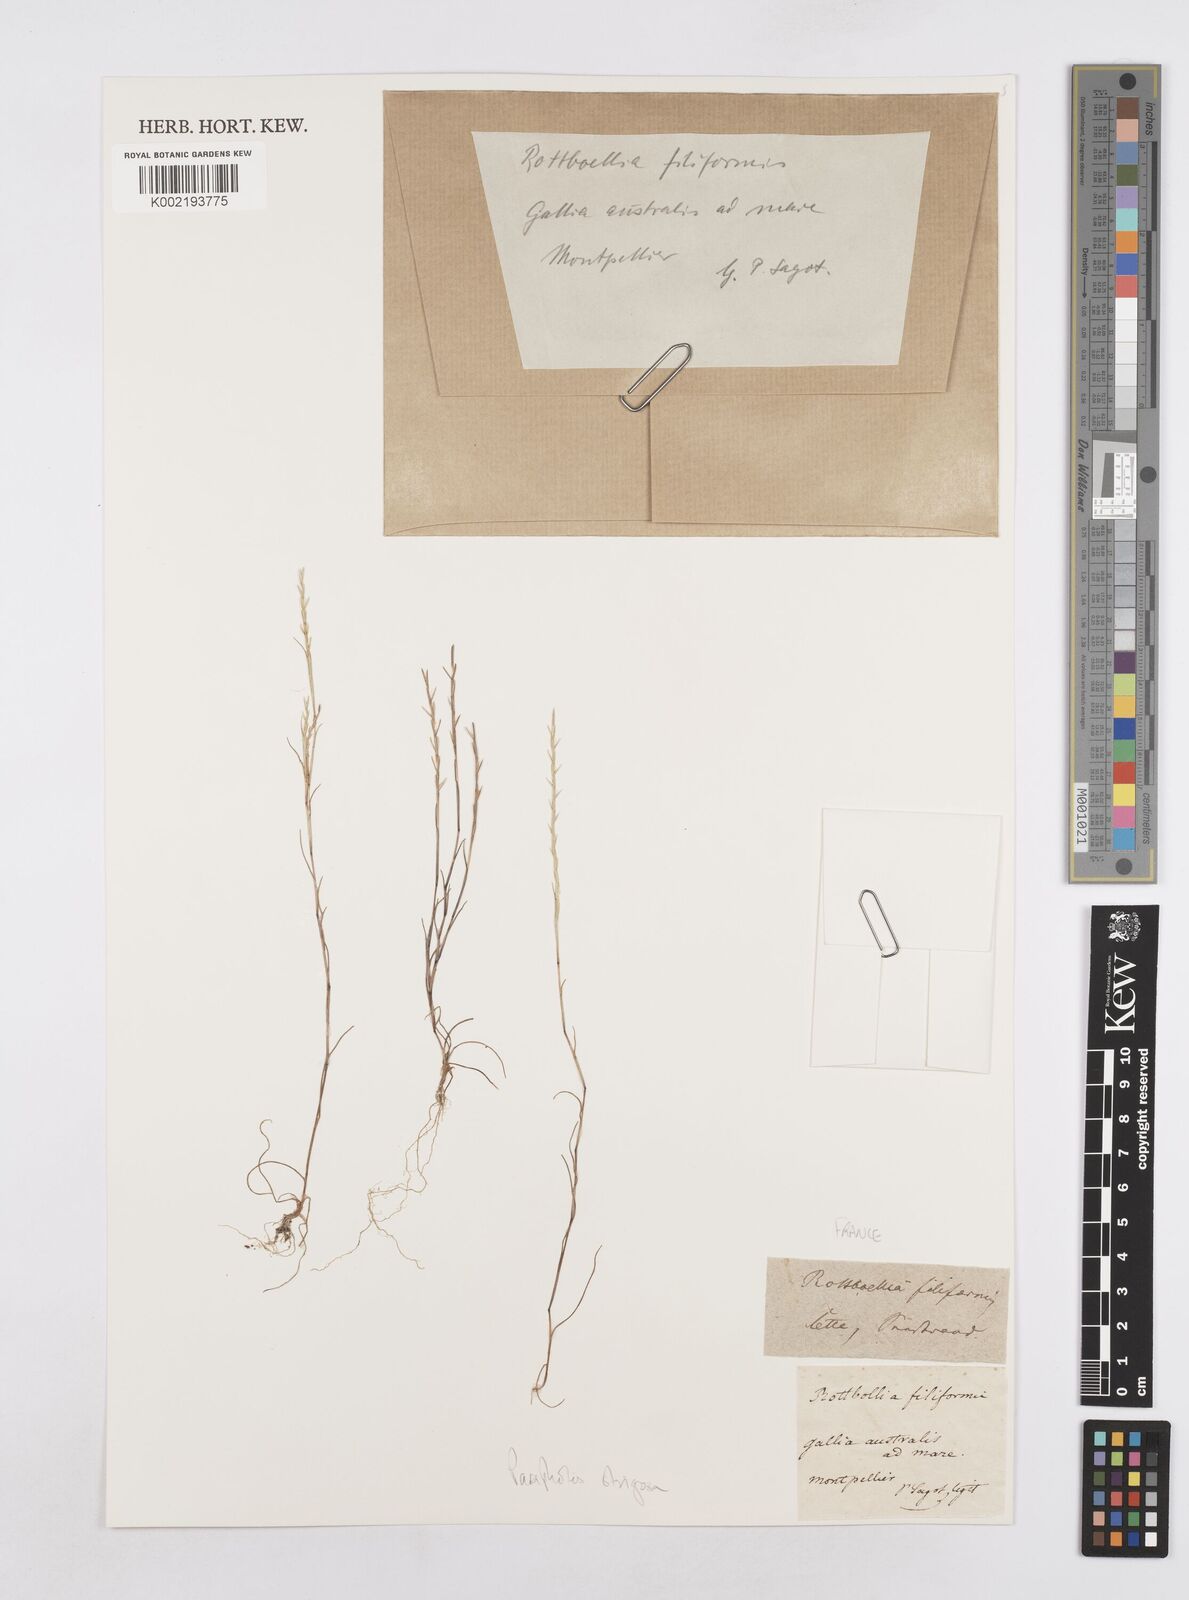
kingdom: Plantae
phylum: Tracheophyta
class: Liliopsida
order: Poales
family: Poaceae
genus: Parapholis
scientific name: Parapholis strigosa
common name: Hard-grass
